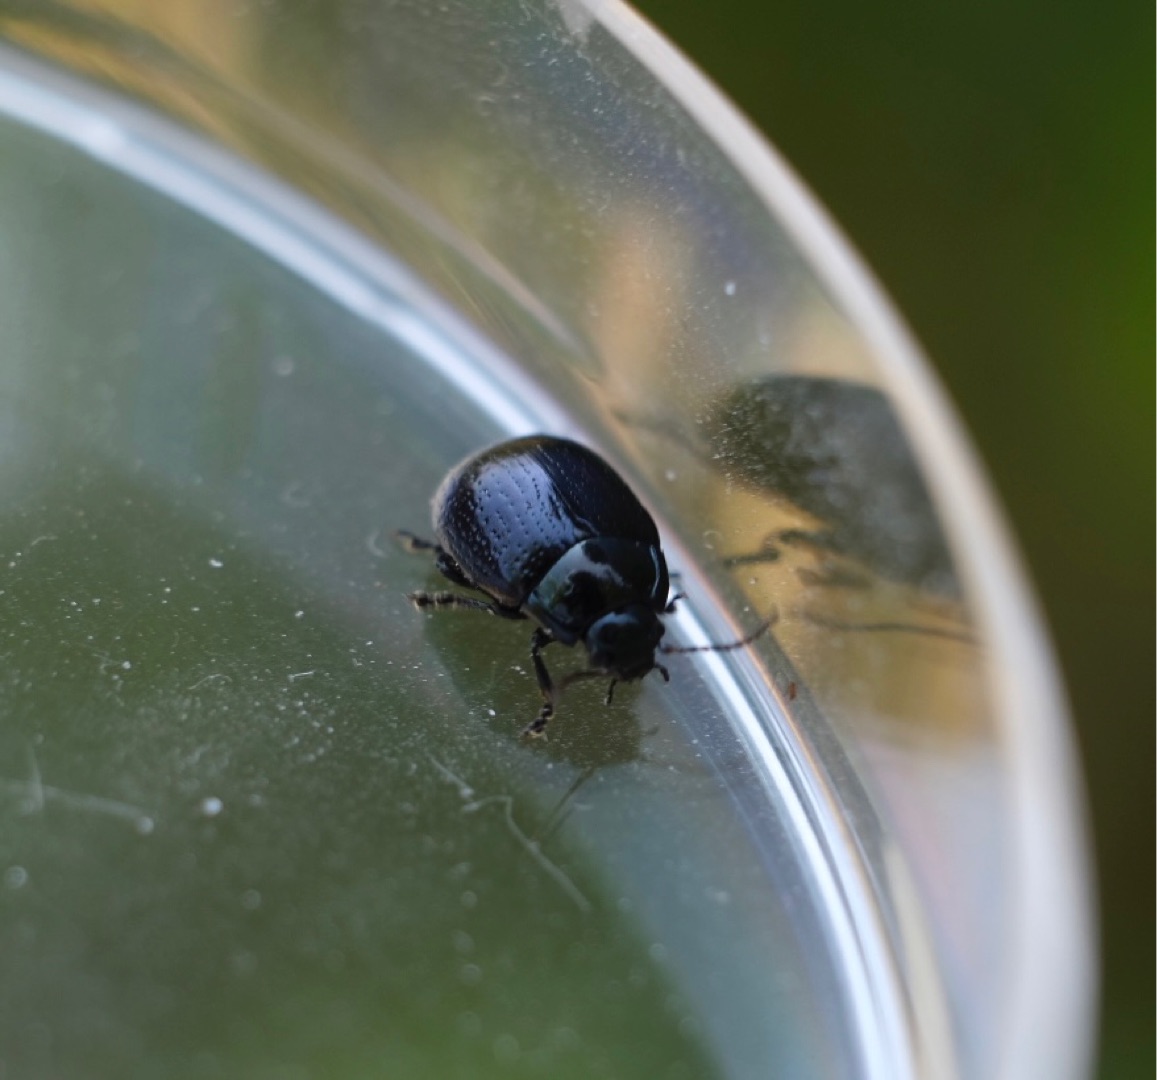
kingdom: Animalia
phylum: Arthropoda
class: Insecta
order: Coleoptera
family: Chrysomelidae
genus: Chrysolina
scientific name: Chrysolina oricalcia
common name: Rækkepunkteret guldbille
